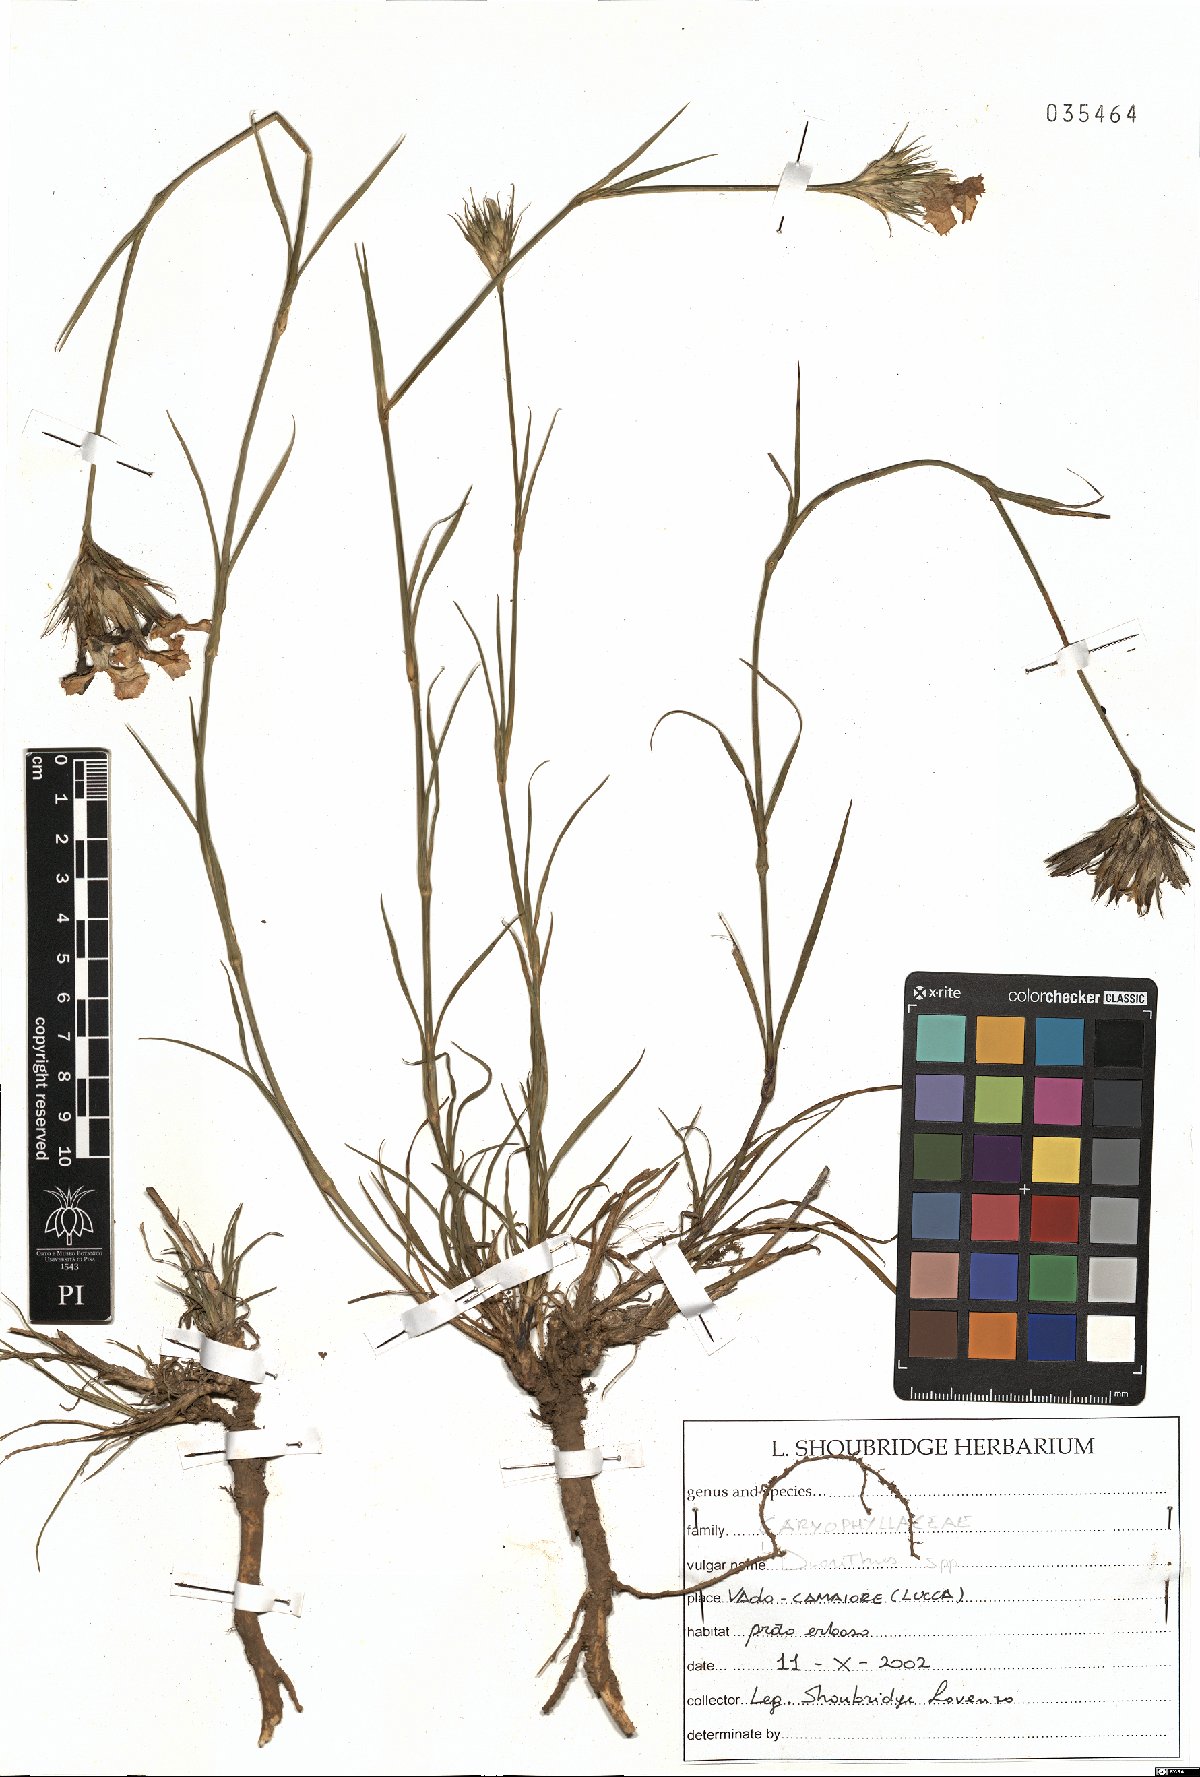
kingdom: Plantae
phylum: Tracheophyta
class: Magnoliopsida
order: Caryophyllales
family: Caryophyllaceae
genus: Dianthus
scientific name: Dianthus
